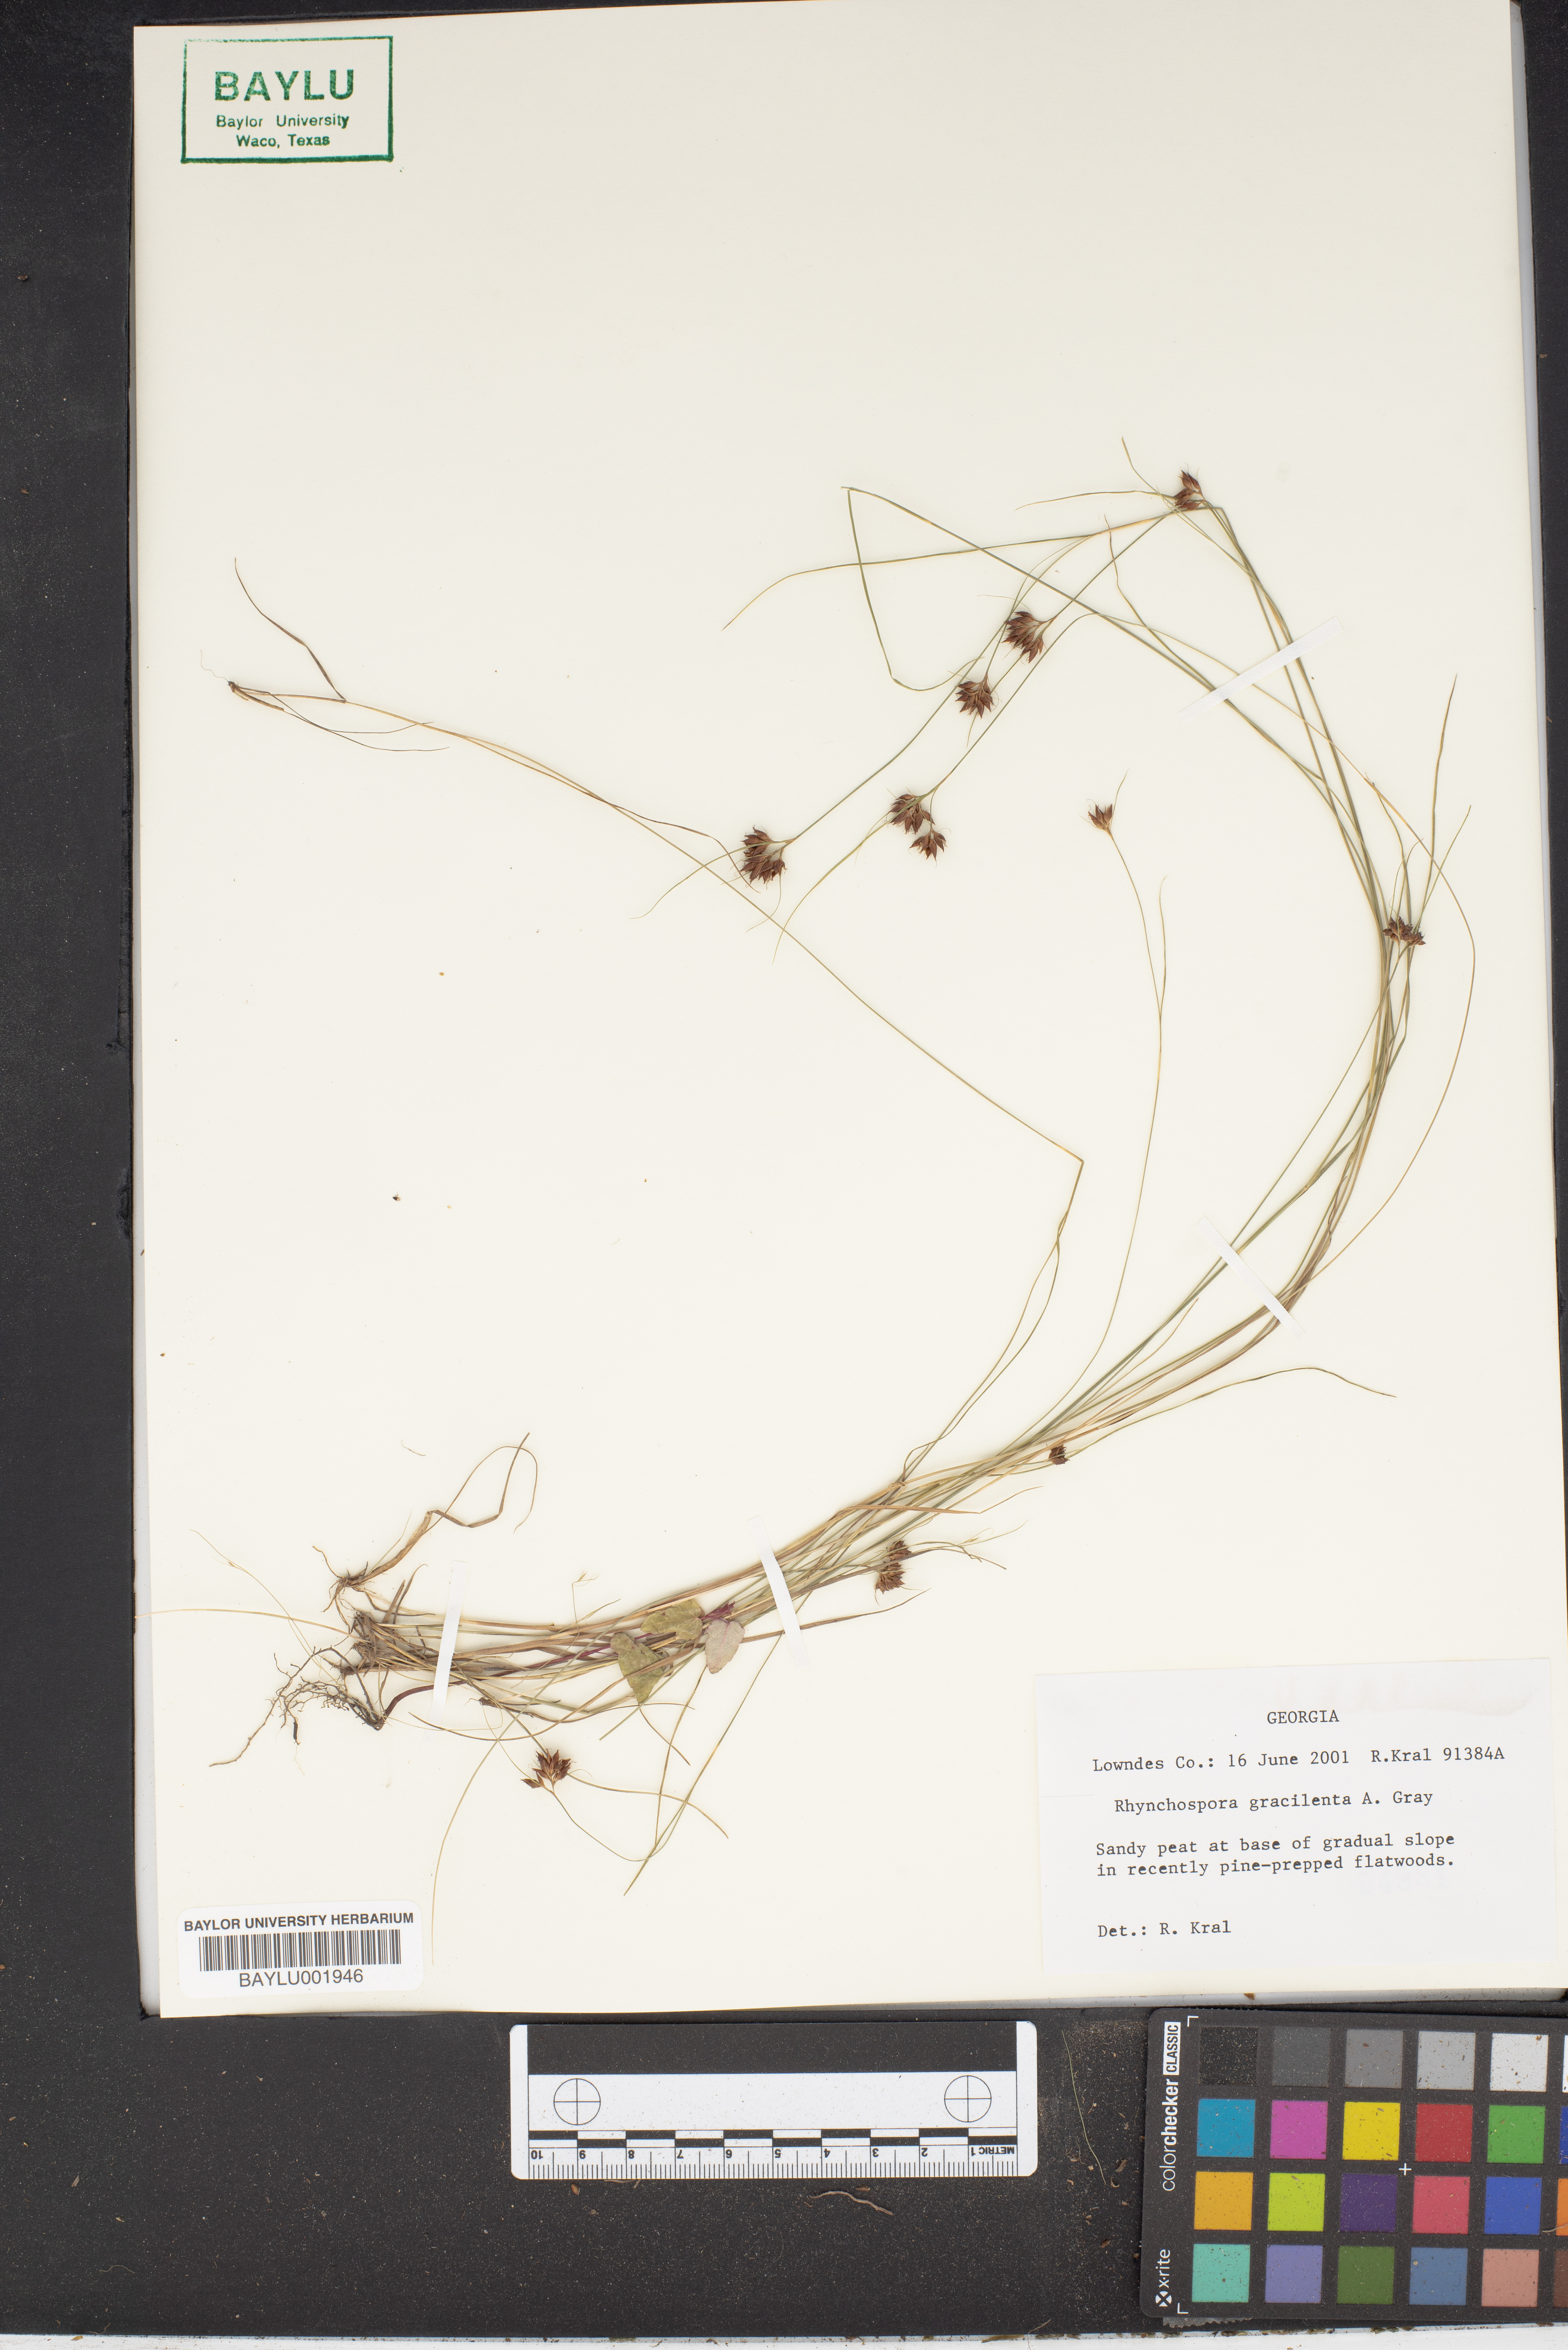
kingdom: Plantae
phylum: Tracheophyta
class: Liliopsida
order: Poales
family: Cyperaceae
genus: Rhynchospora
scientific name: Rhynchospora gracilenta
